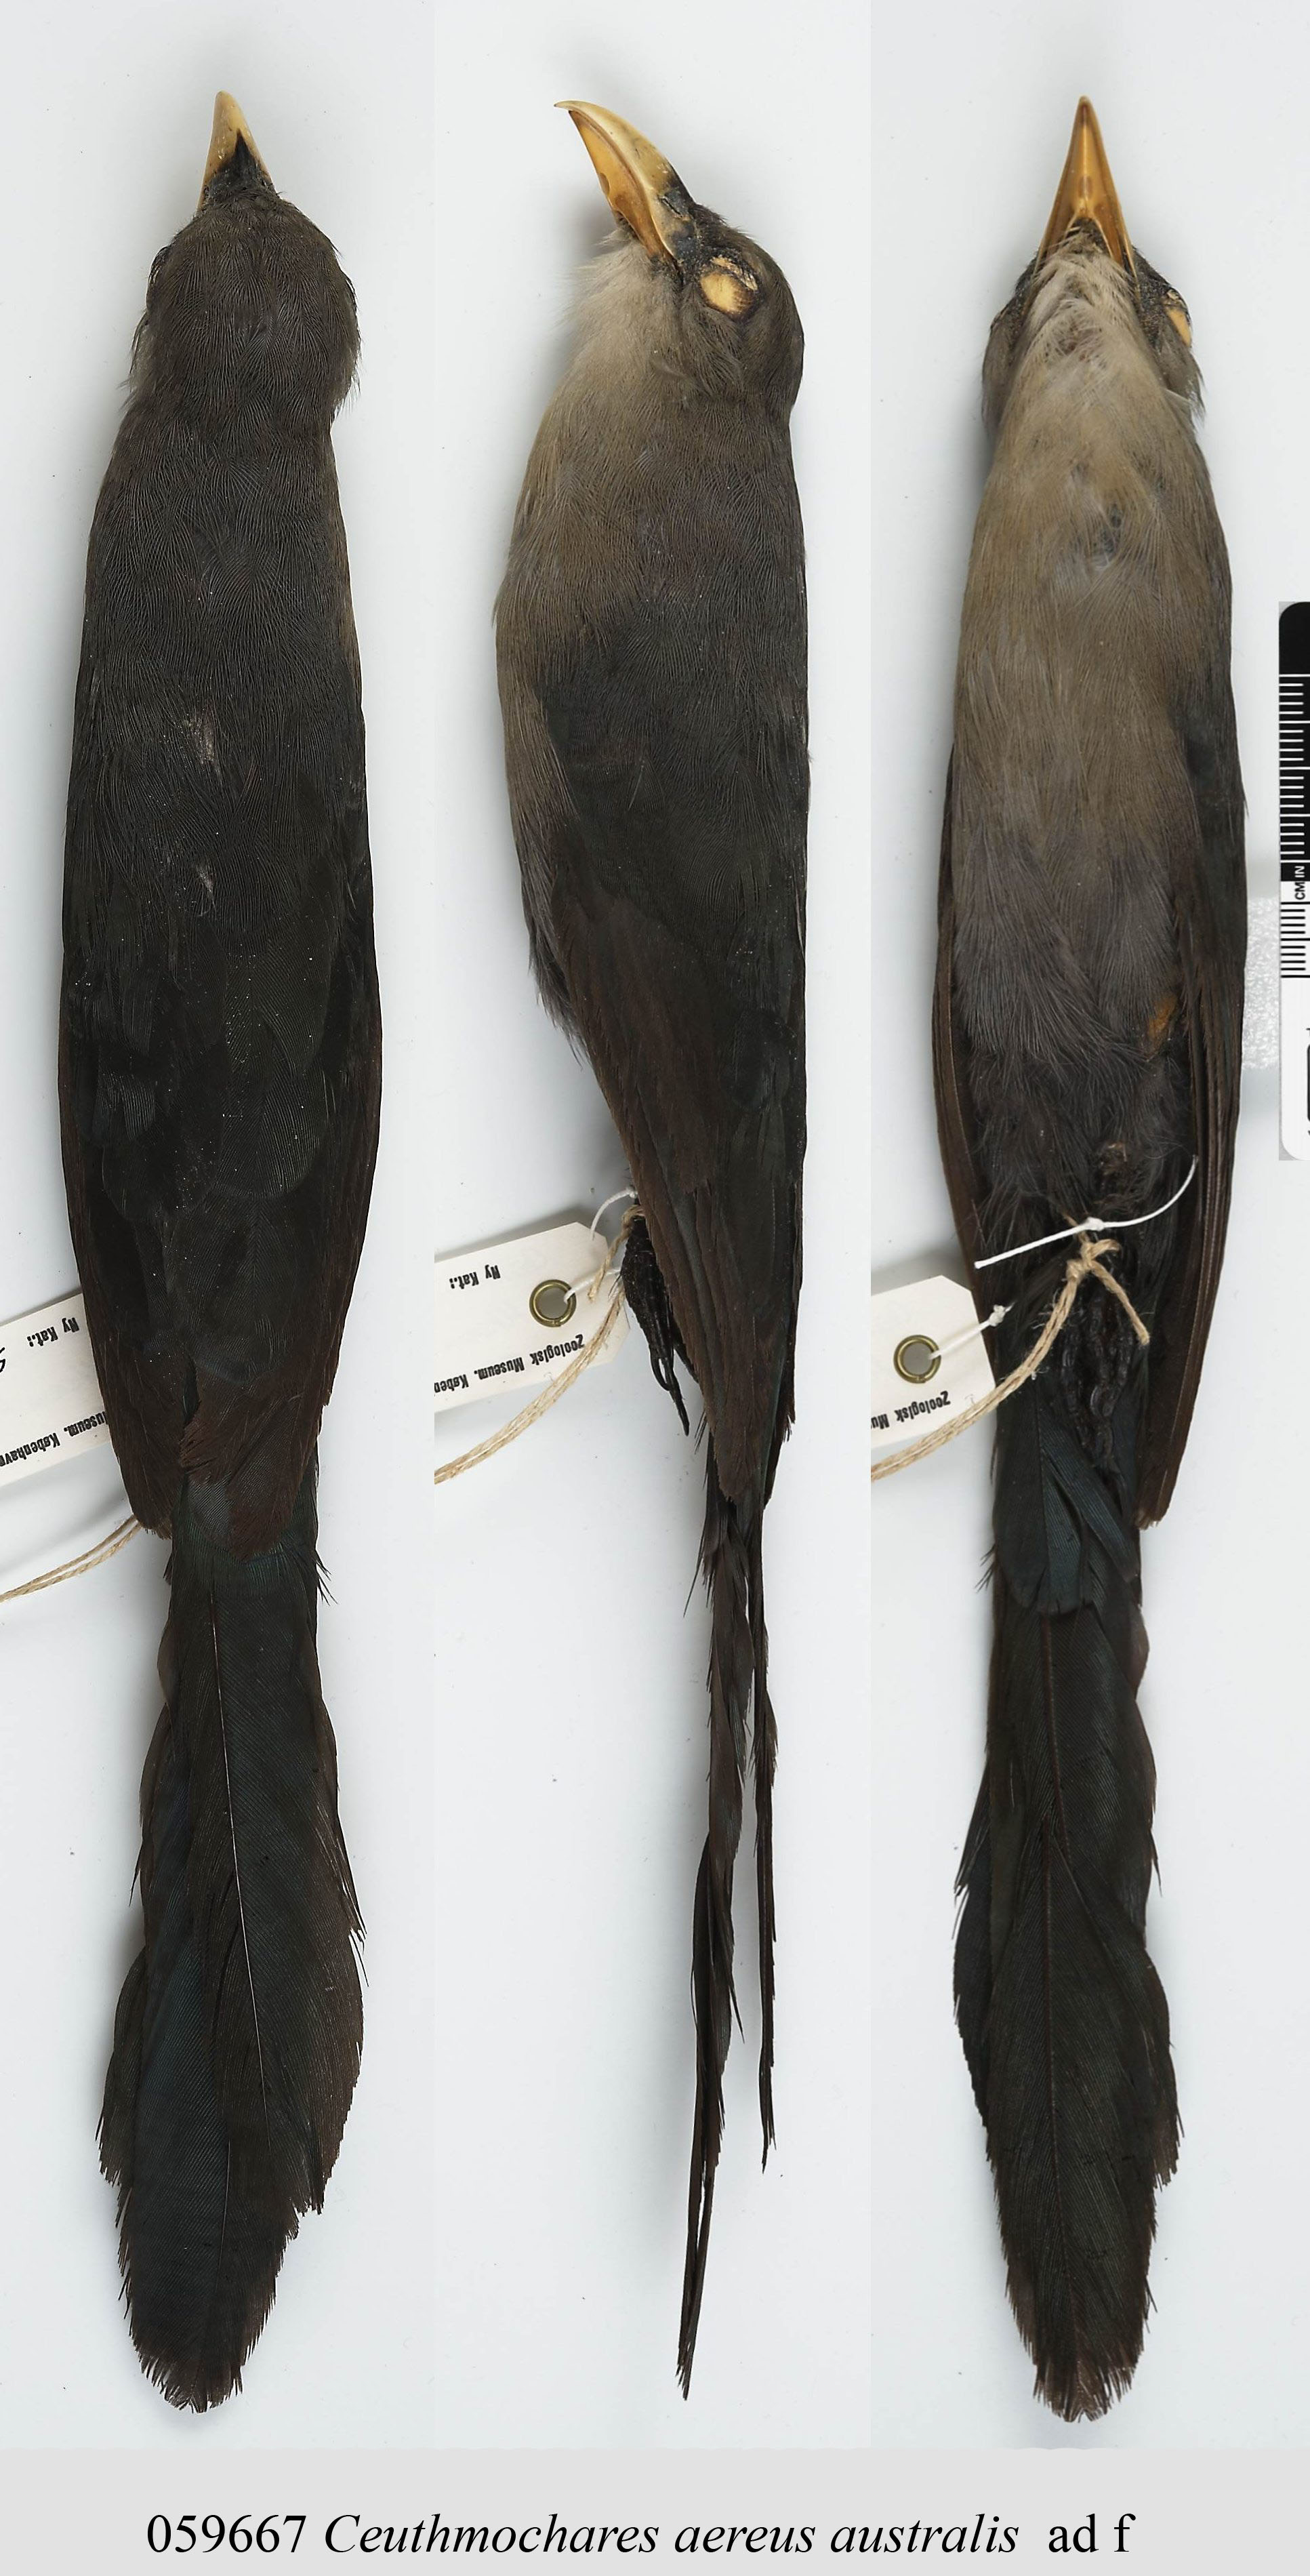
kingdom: Animalia
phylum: Chordata
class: Aves
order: Cuculiformes
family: Cuculidae
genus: Ceuthmochares
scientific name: Ceuthmochares aereus
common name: Blue malkoha
